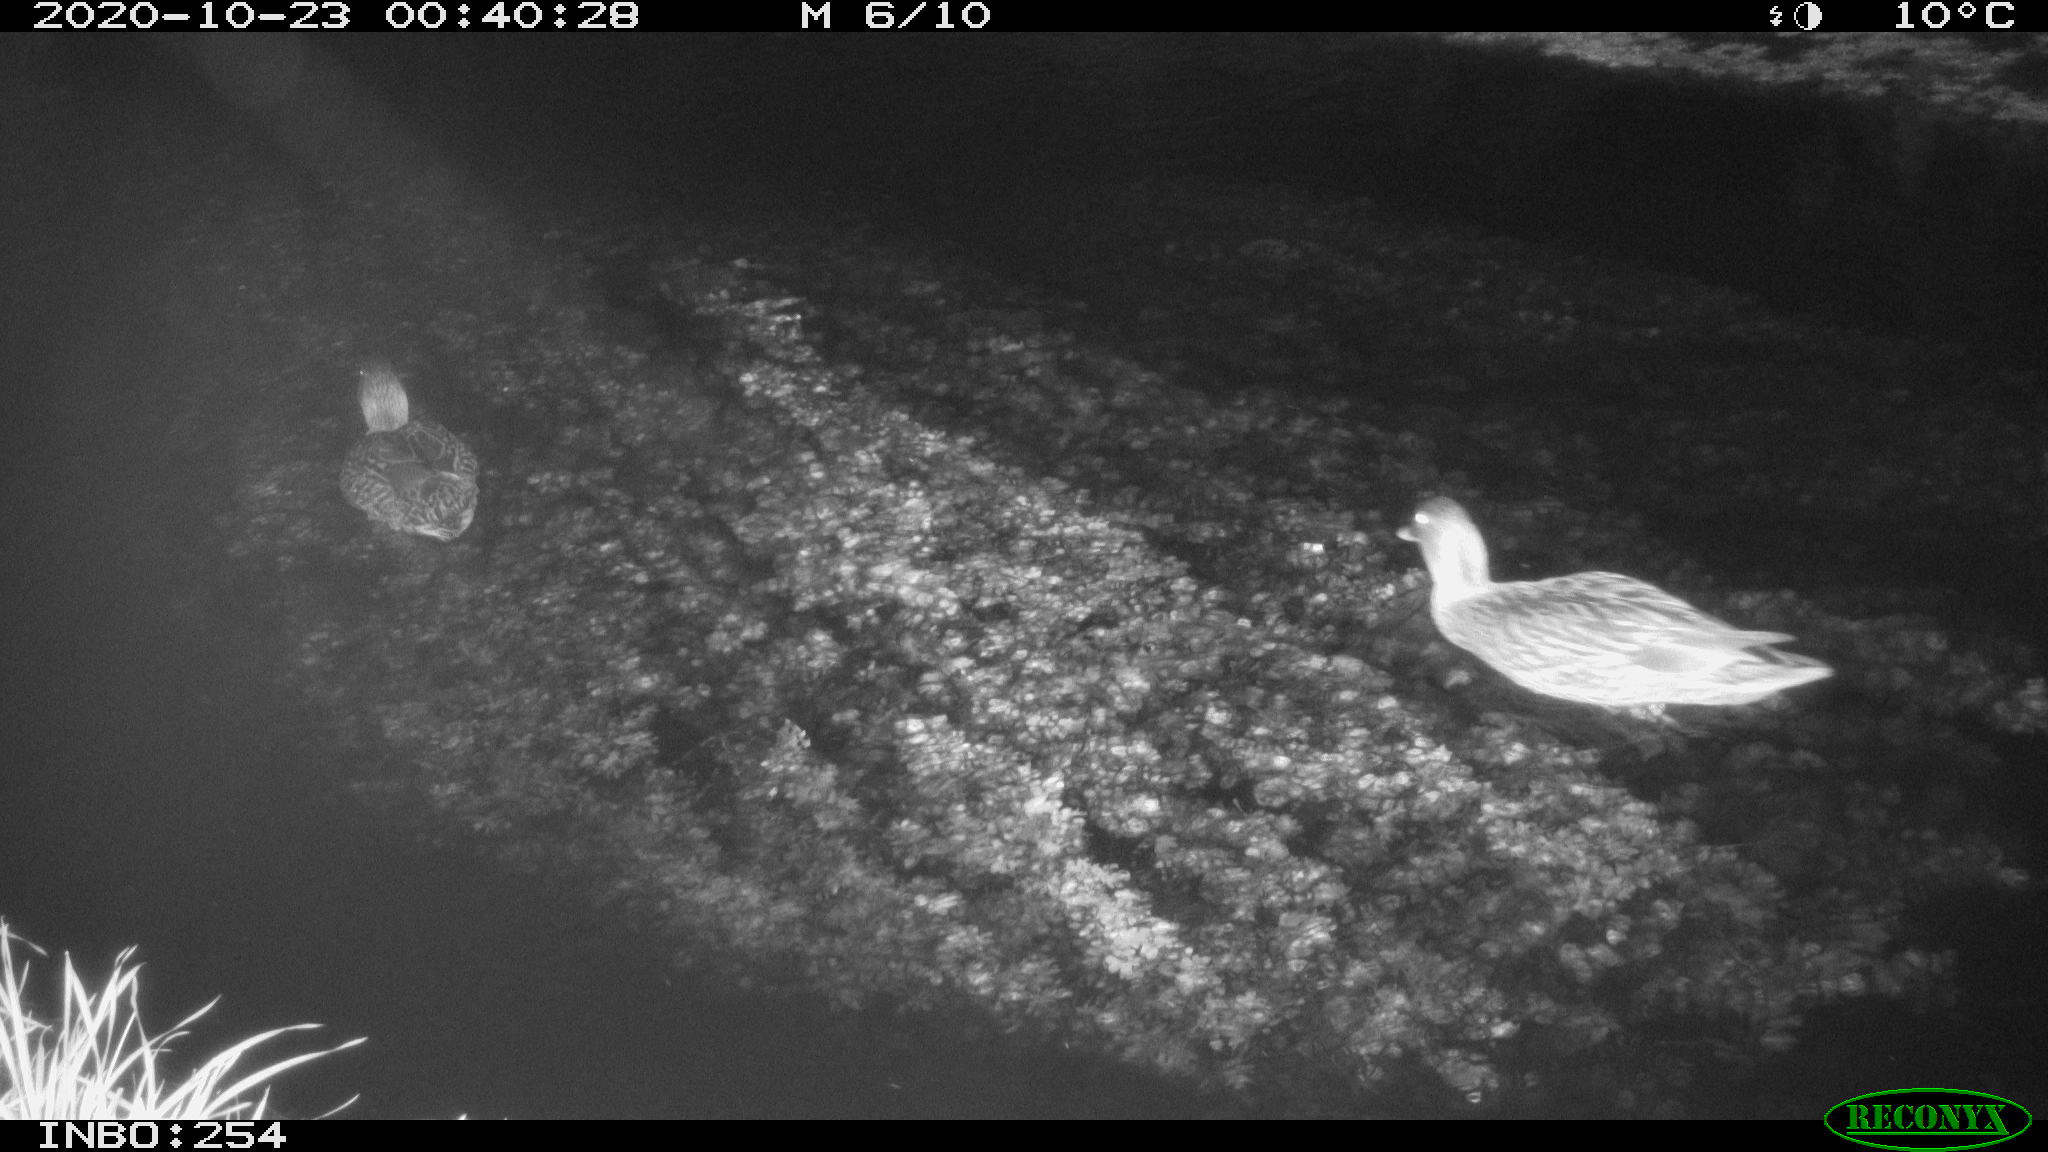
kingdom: Animalia
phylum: Chordata
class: Aves
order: Anseriformes
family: Anatidae
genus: Anas
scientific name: Anas platyrhynchos
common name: Mallard
